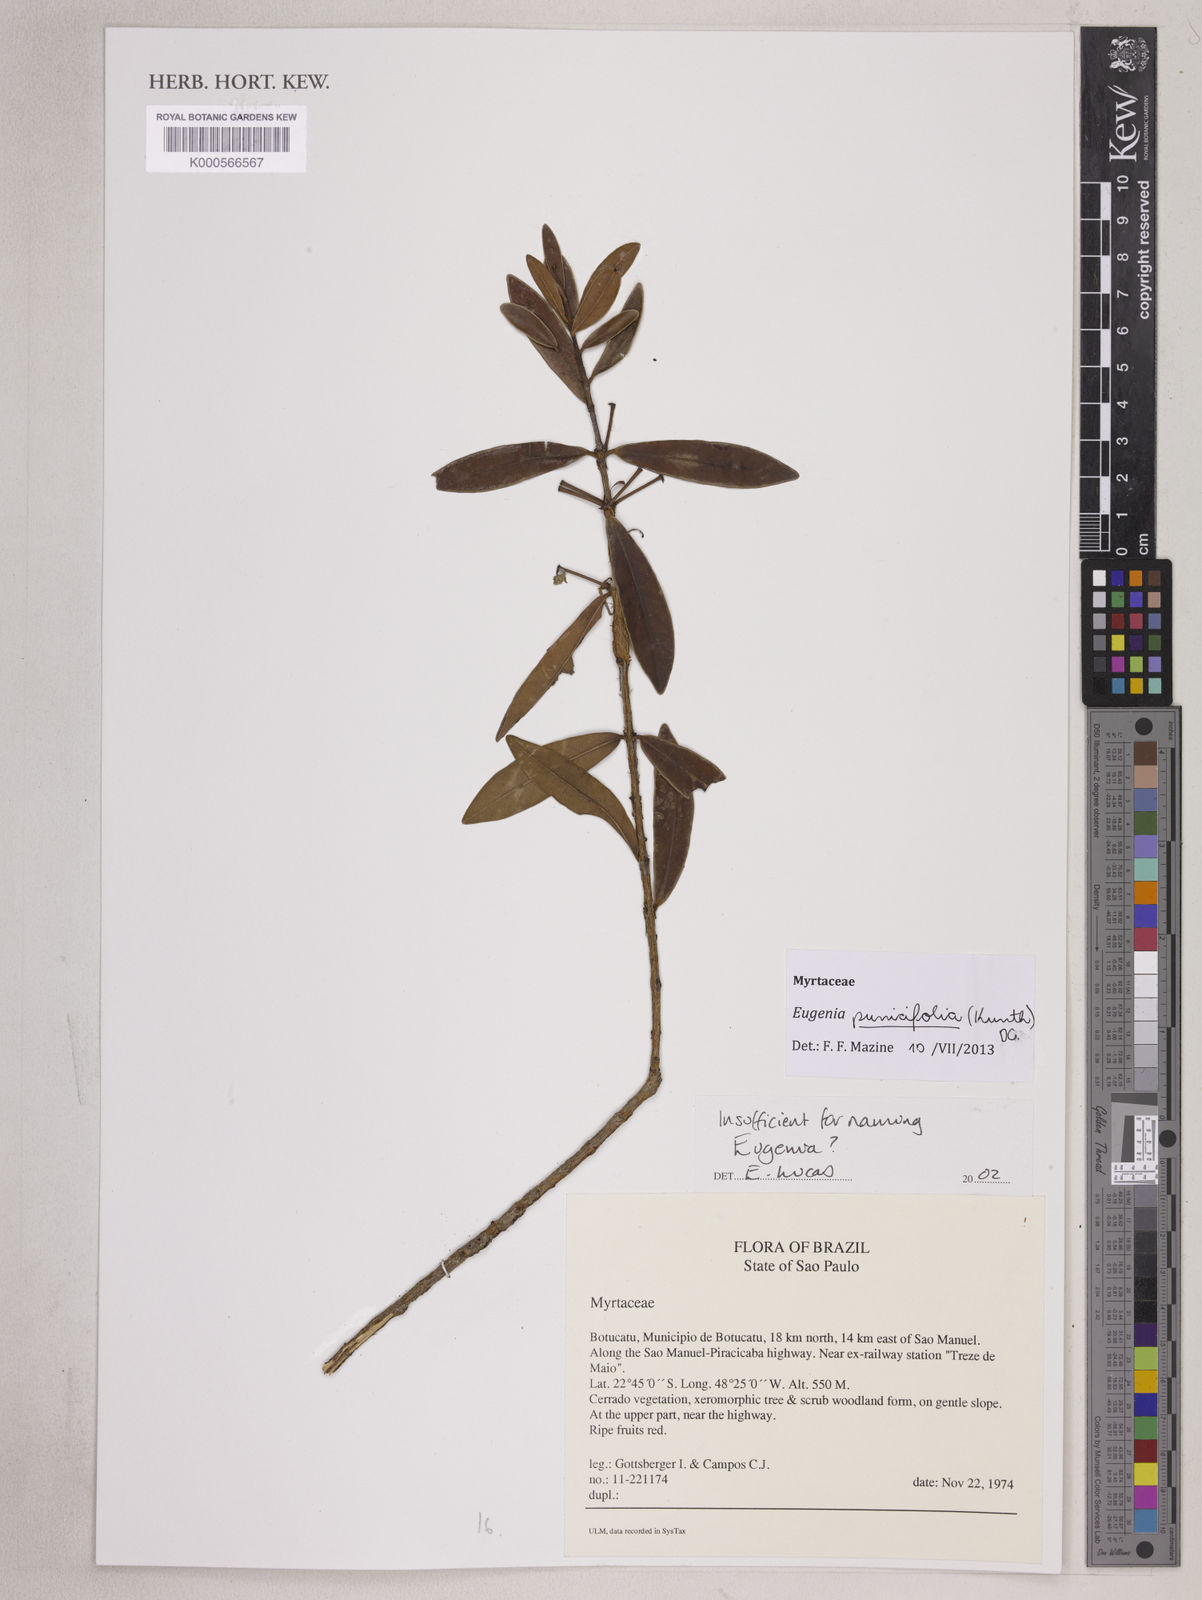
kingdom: Plantae
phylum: Tracheophyta
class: Magnoliopsida
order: Myrtales
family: Myrtaceae
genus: Eugenia
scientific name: Eugenia
